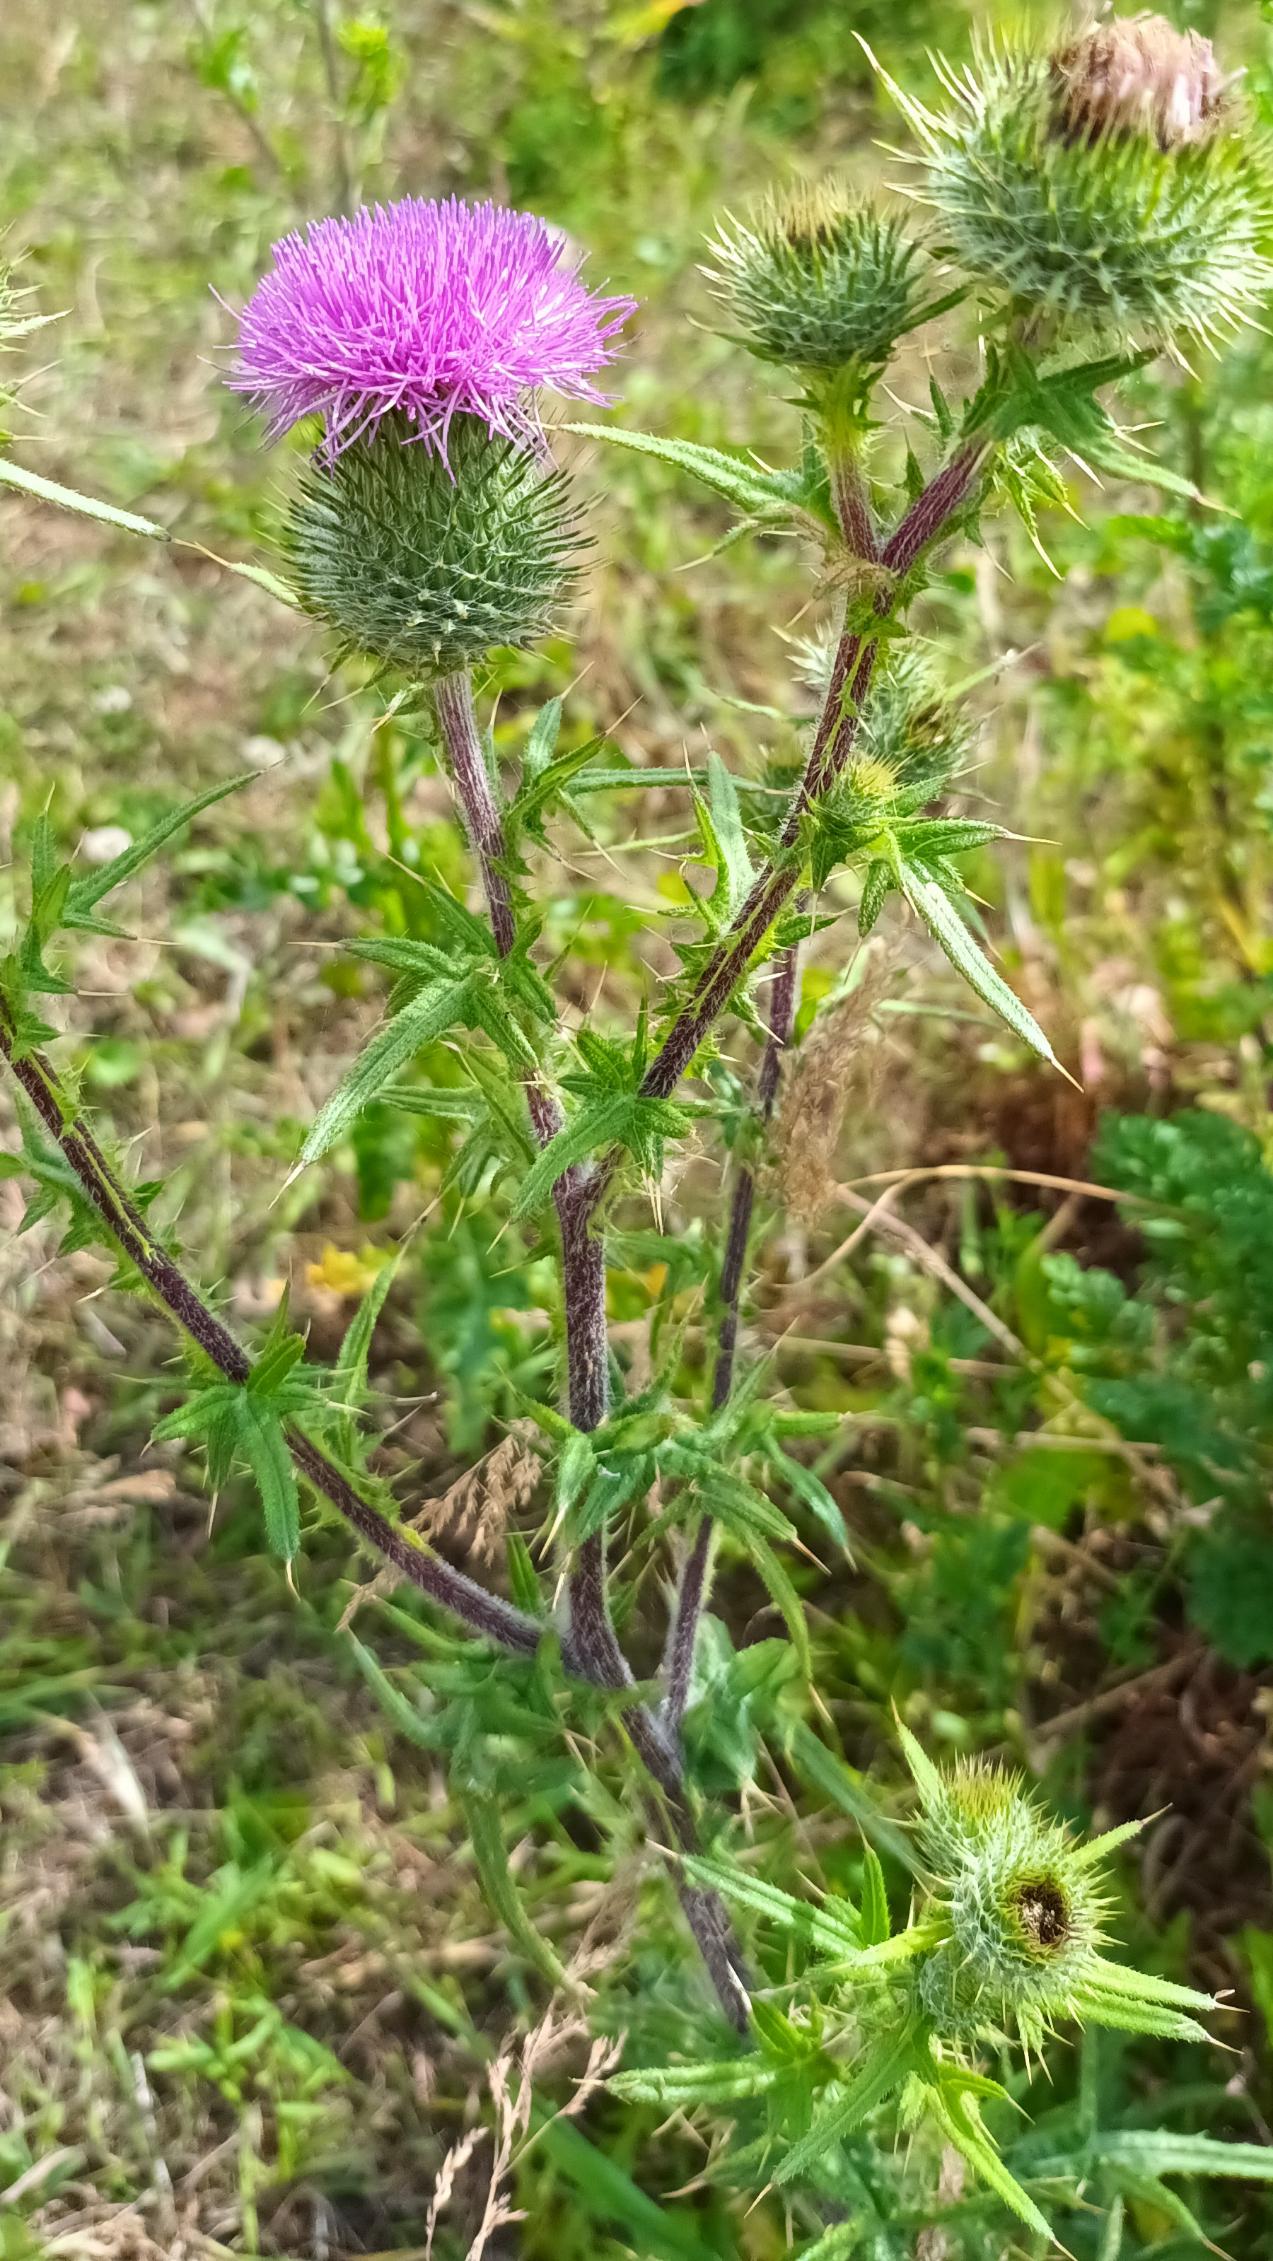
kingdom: Plantae
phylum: Tracheophyta
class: Magnoliopsida
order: Asterales
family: Asteraceae
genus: Cirsium
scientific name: Cirsium vulgare
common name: Horse-tidsel
